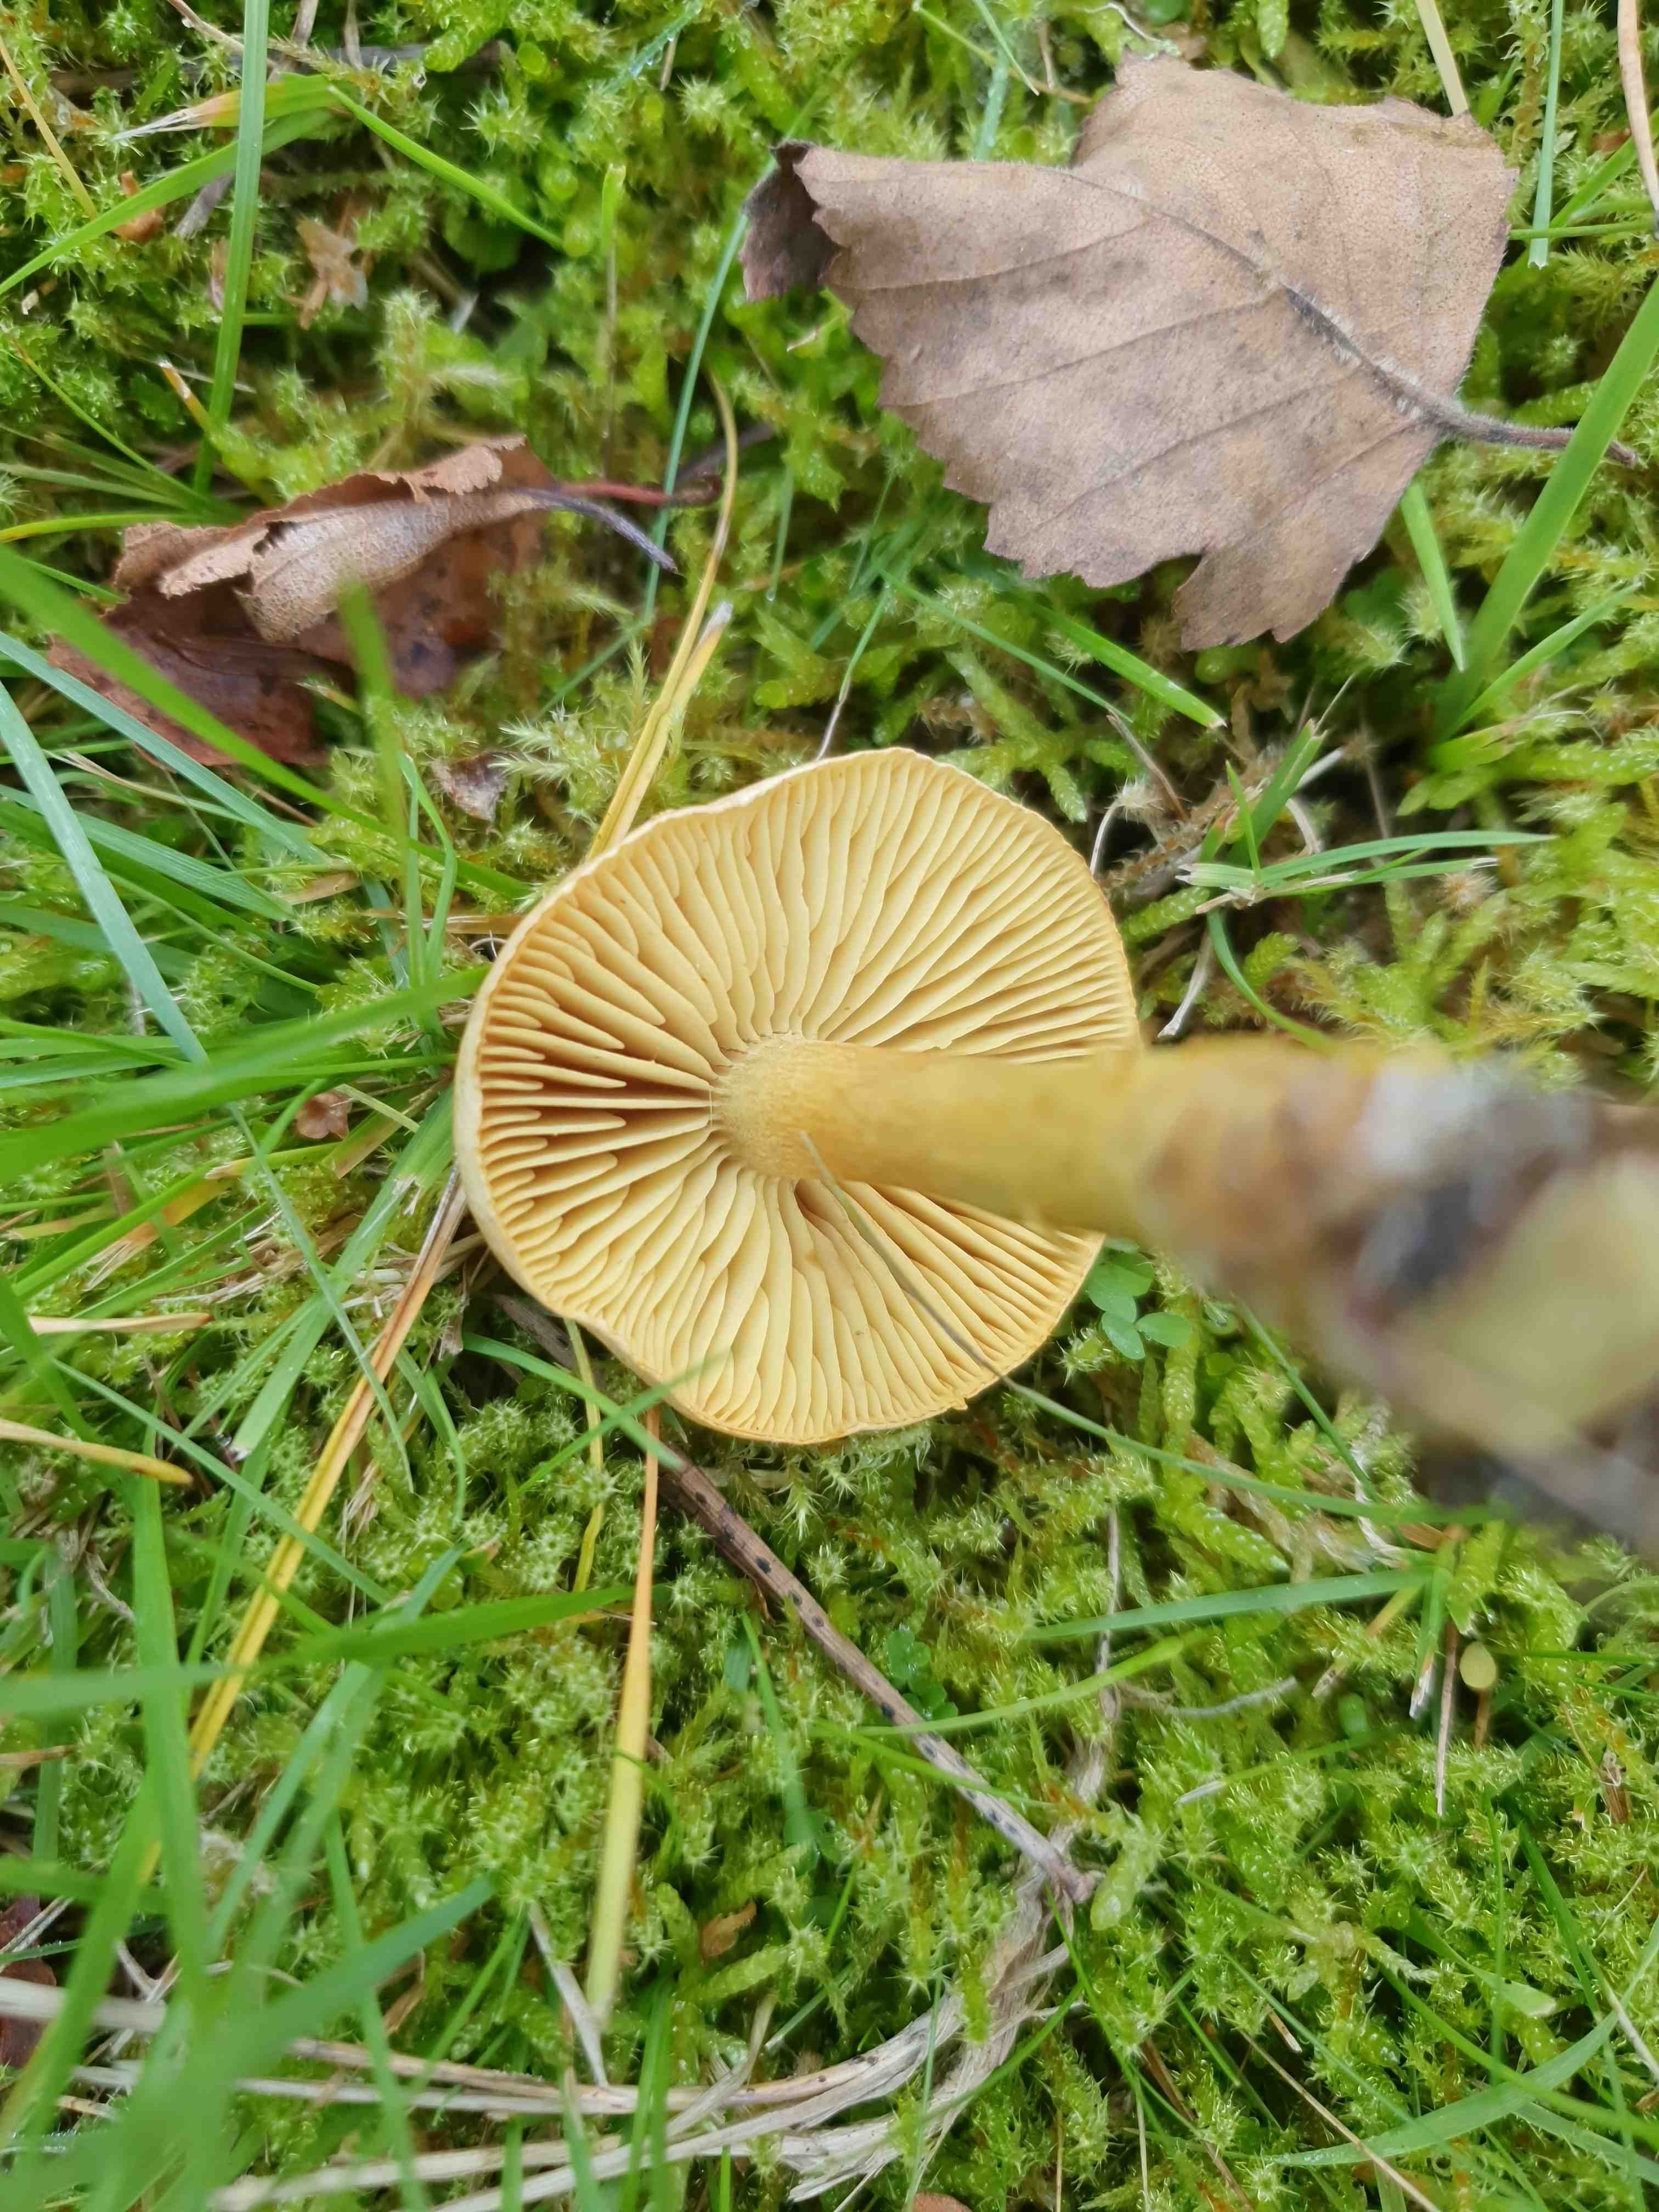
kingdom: Fungi
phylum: Basidiomycota
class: Agaricomycetes
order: Agaricales
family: Tricholomataceae
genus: Tricholoma
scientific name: Tricholoma sulphureum
